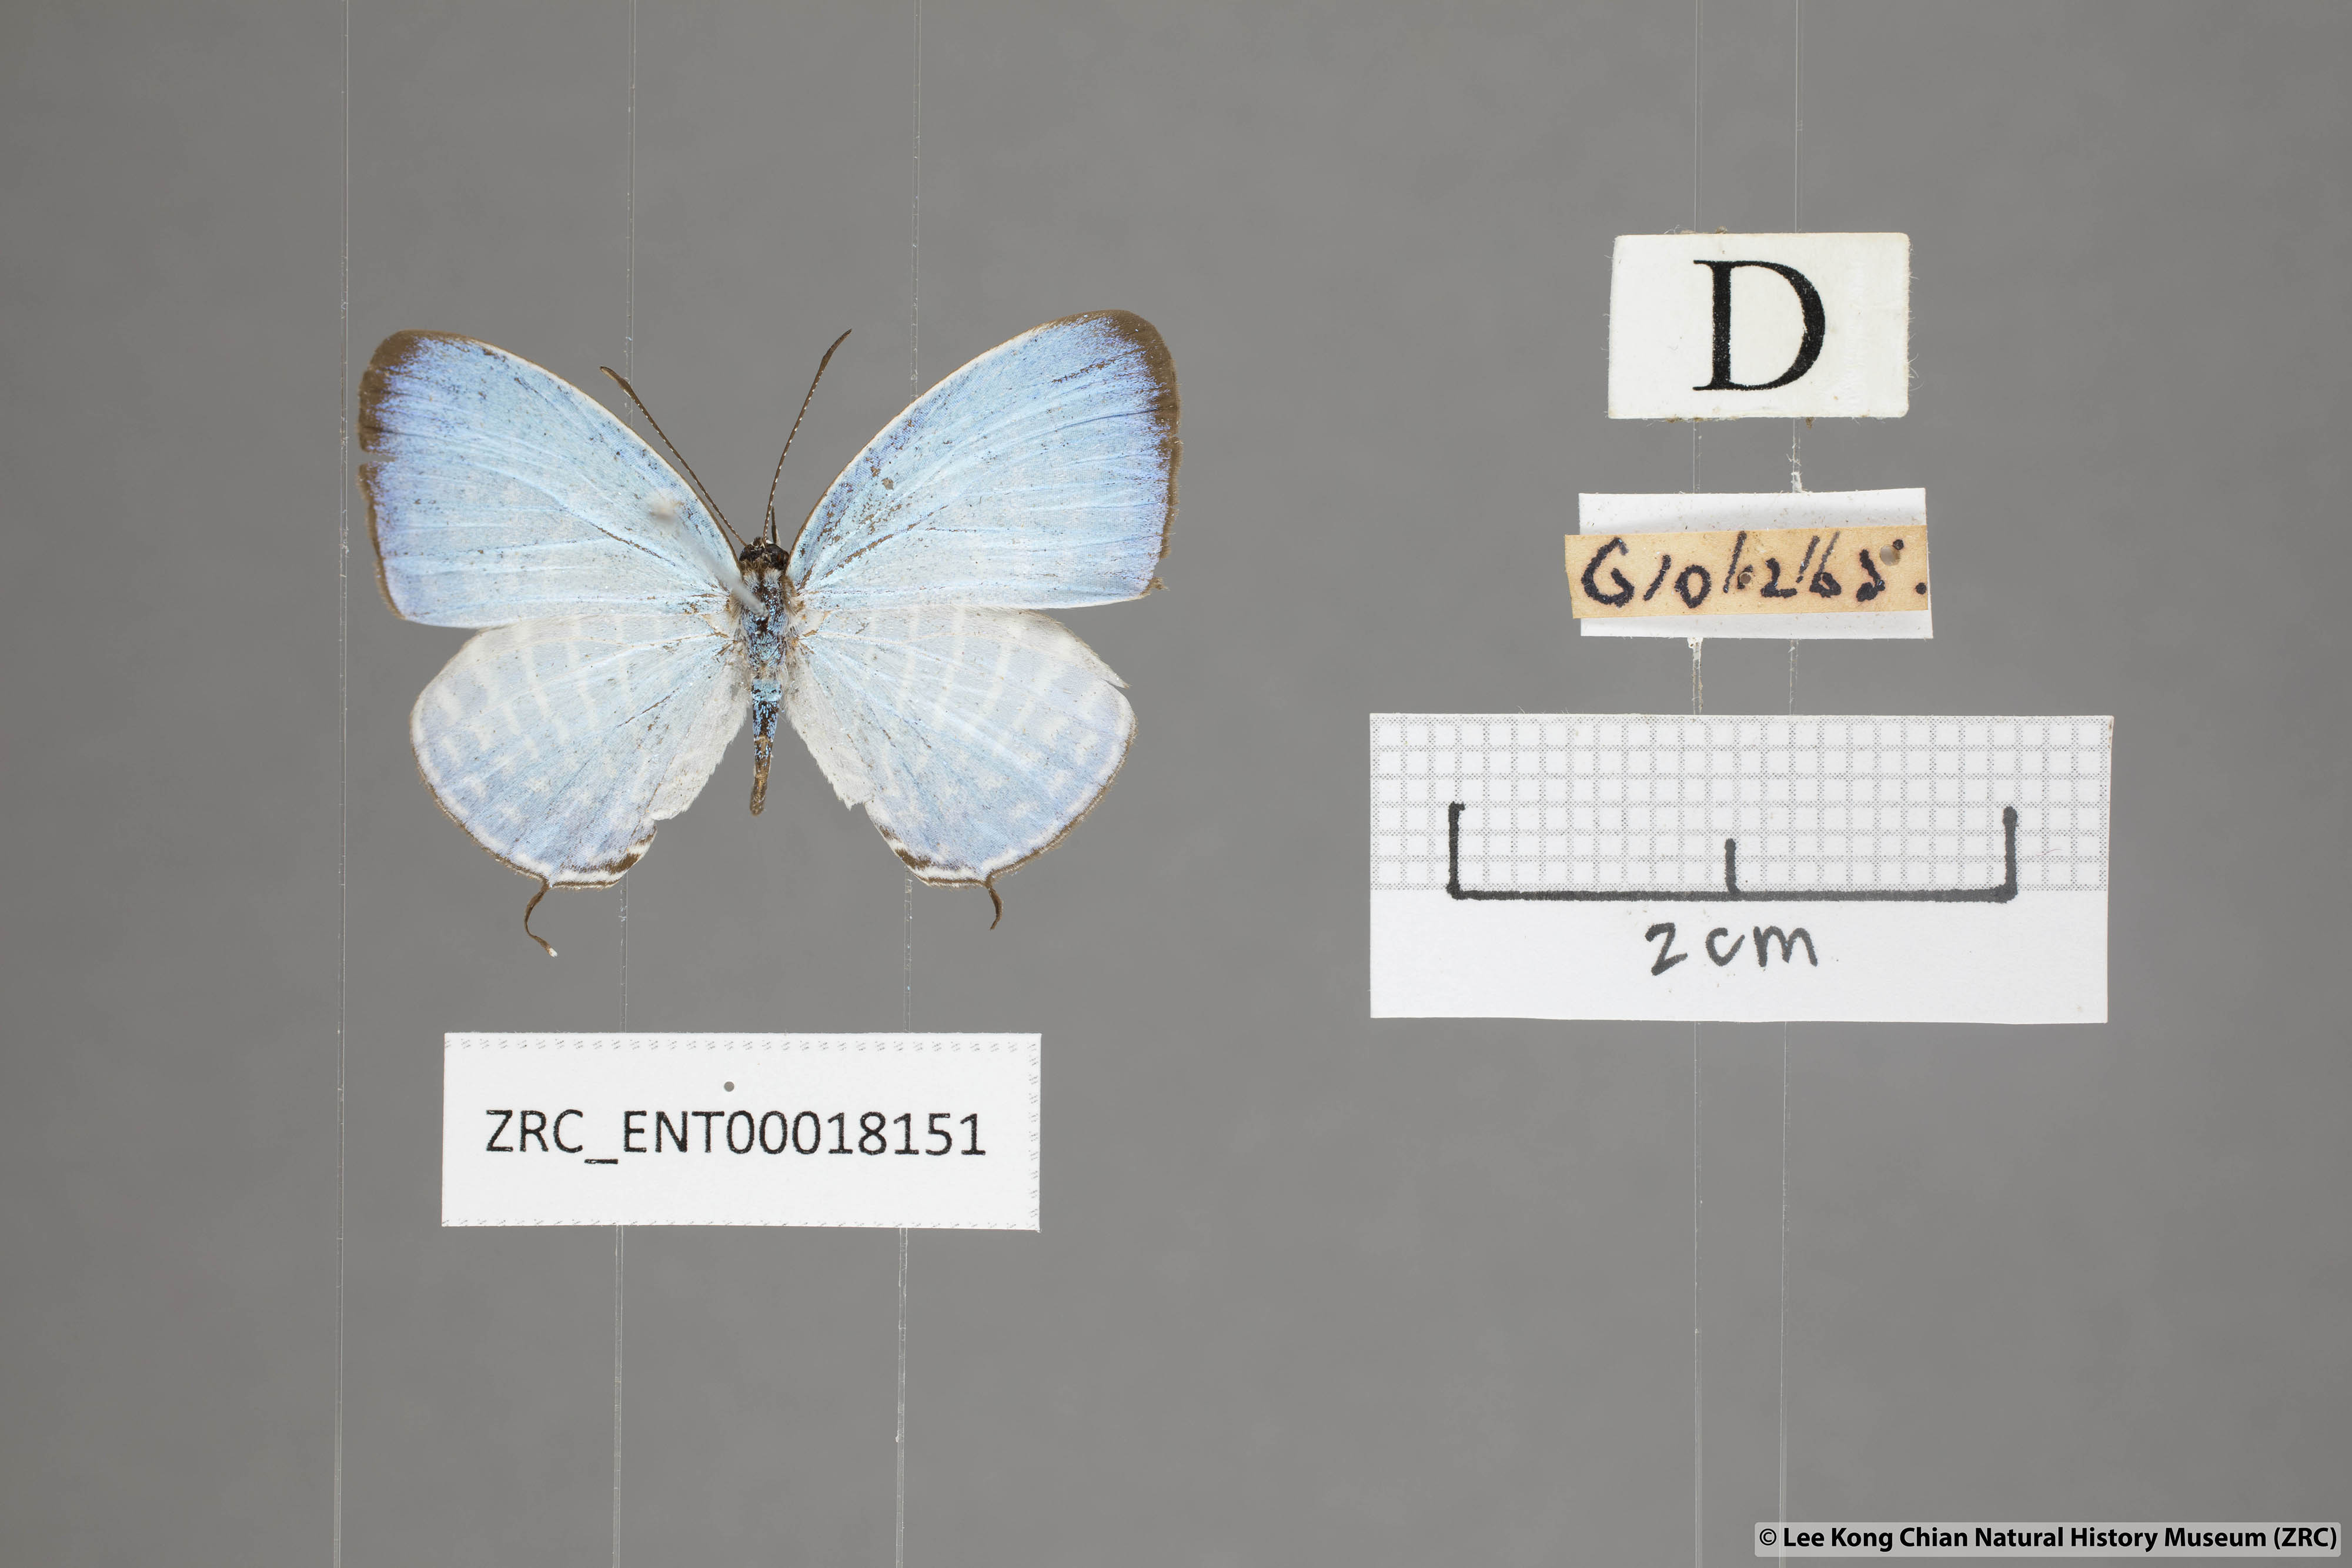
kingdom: Animalia
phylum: Arthropoda
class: Insecta
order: Lepidoptera
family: Lycaenidae
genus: Jamides
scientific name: Jamides parasaturata
